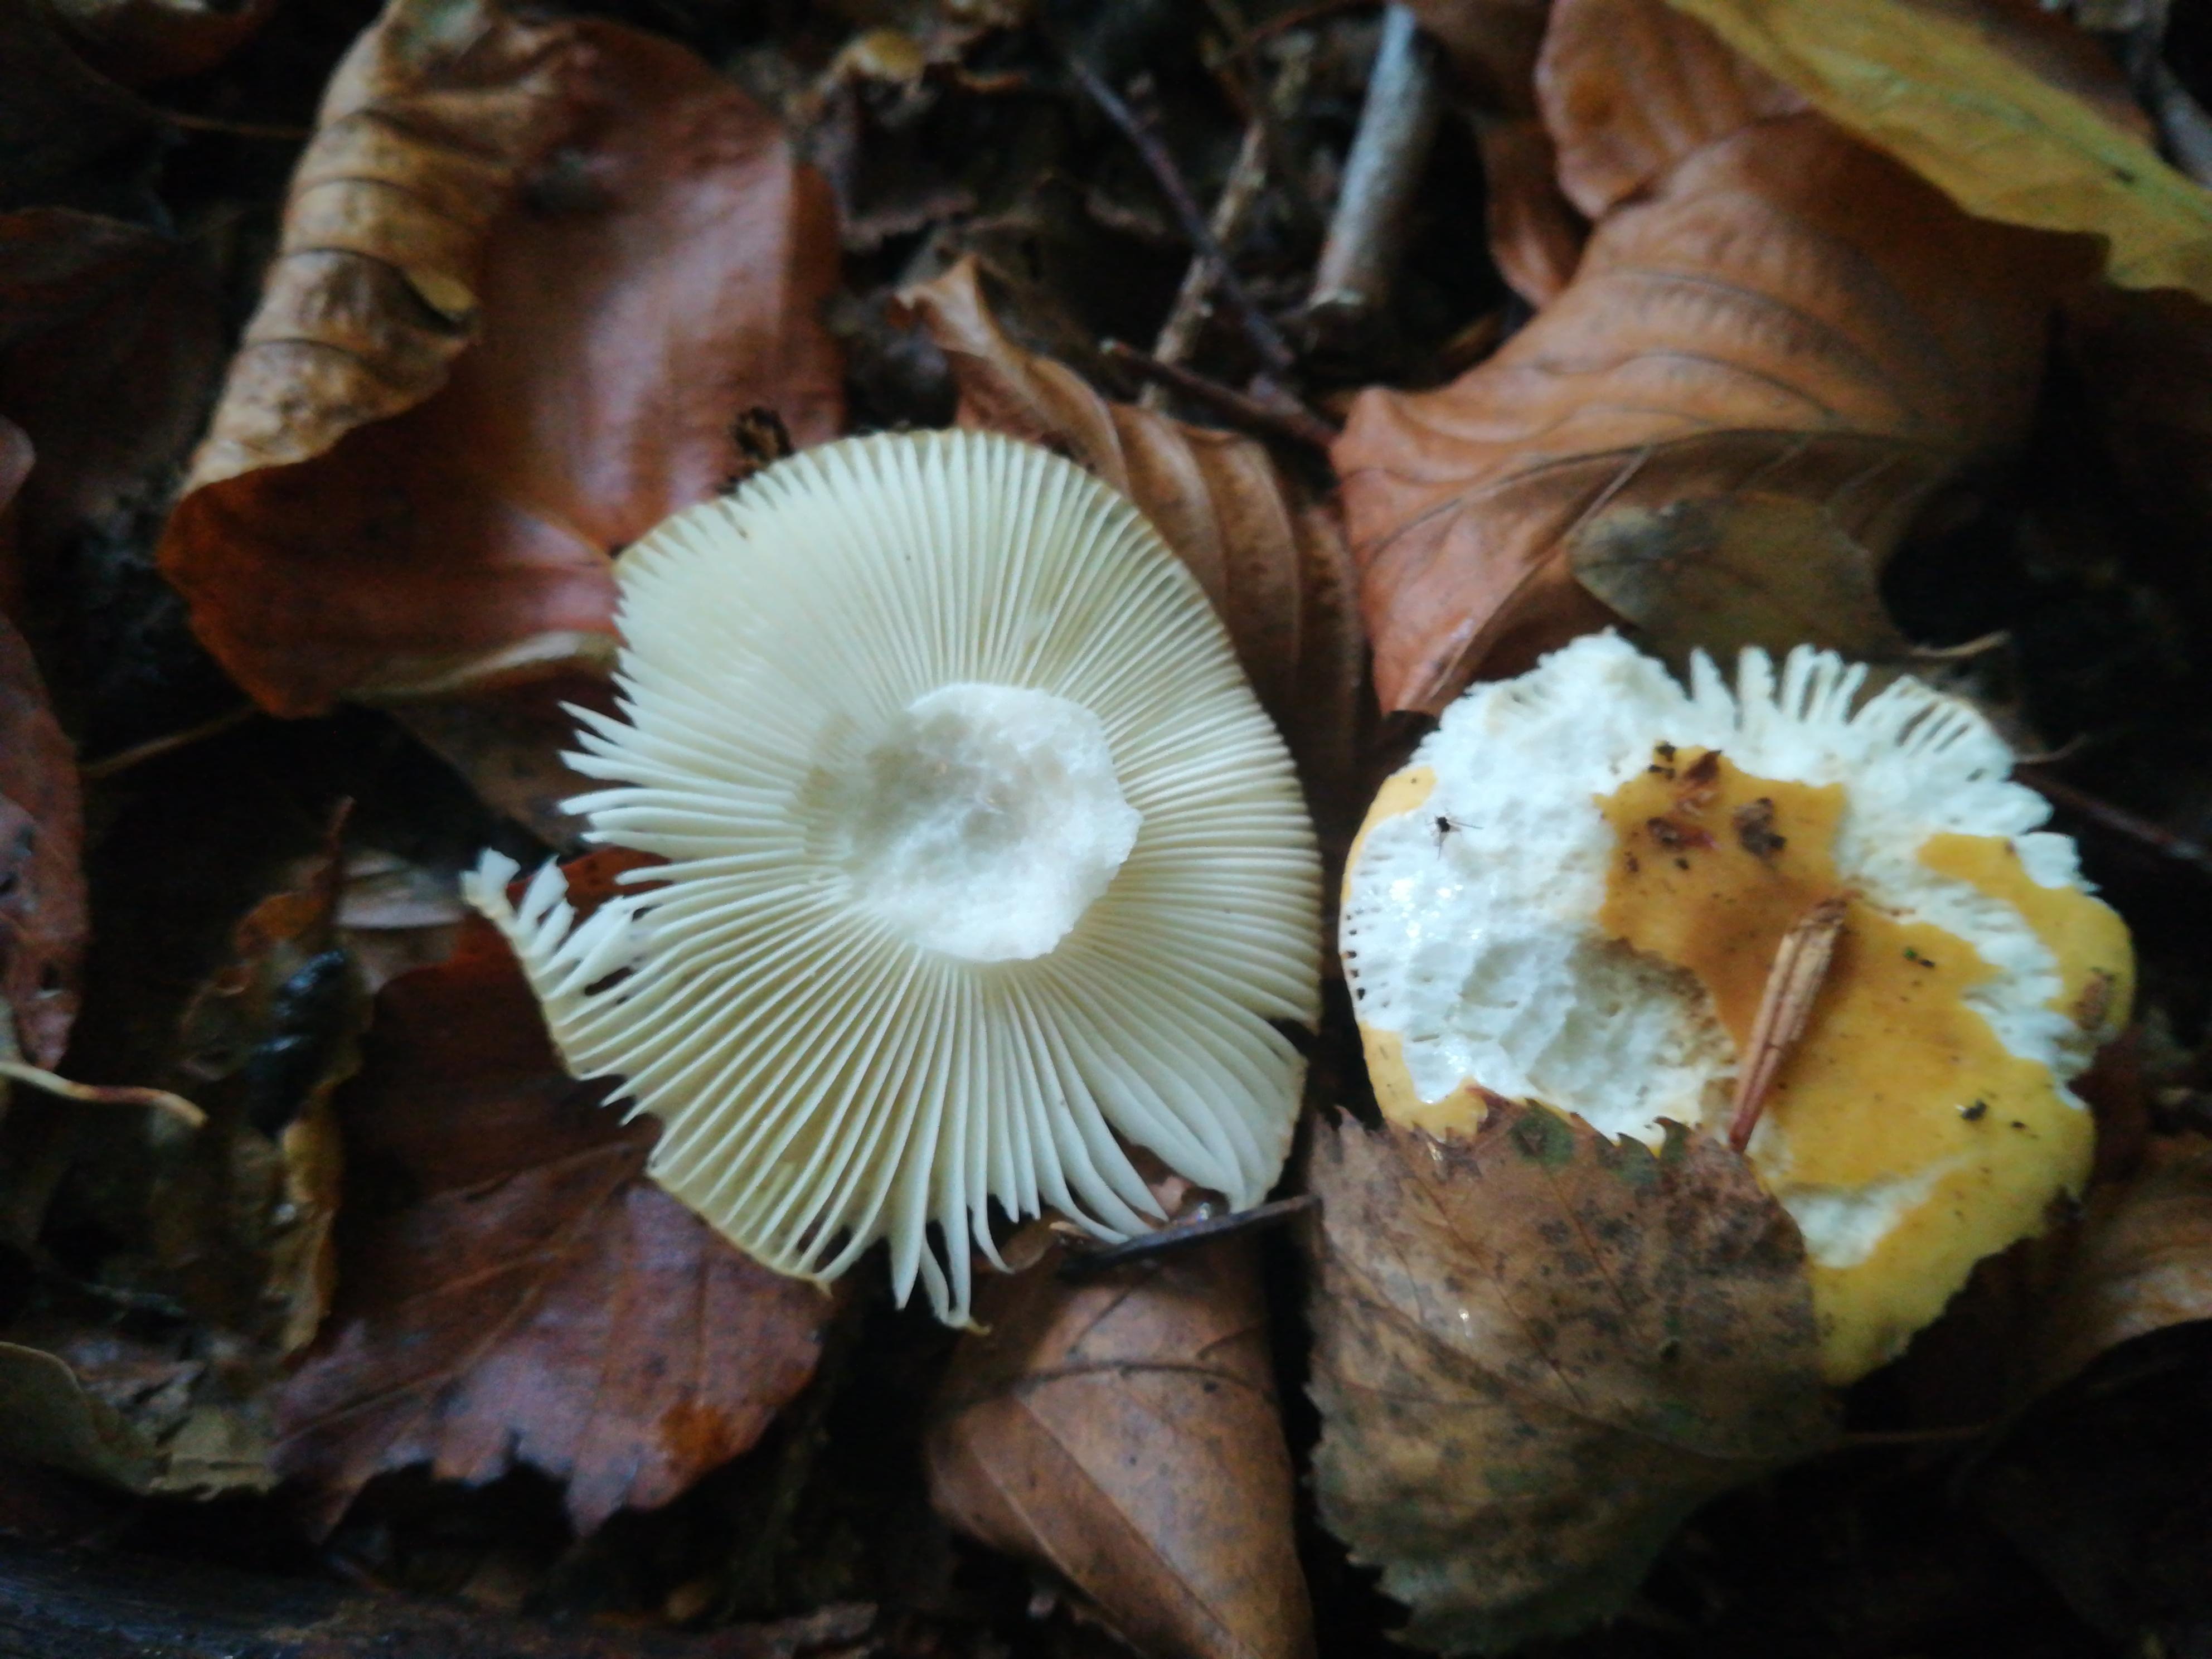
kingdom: Fungi
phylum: Basidiomycota
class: Agaricomycetes
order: Russulales
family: Russulaceae
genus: Russula
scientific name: Russula ochroleuca
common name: okkergul skørhat
